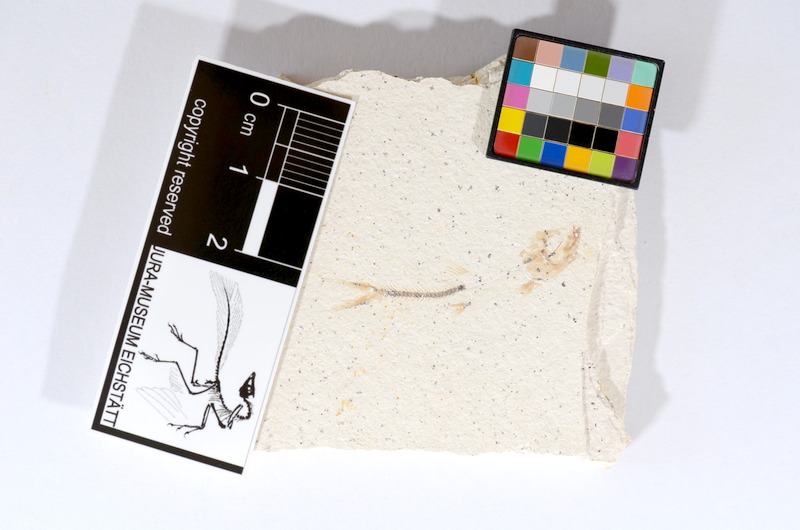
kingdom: Animalia
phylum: Chordata
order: Salmoniformes
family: Orthogonikleithridae
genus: Orthogonikleithrus
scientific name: Orthogonikleithrus hoelli
